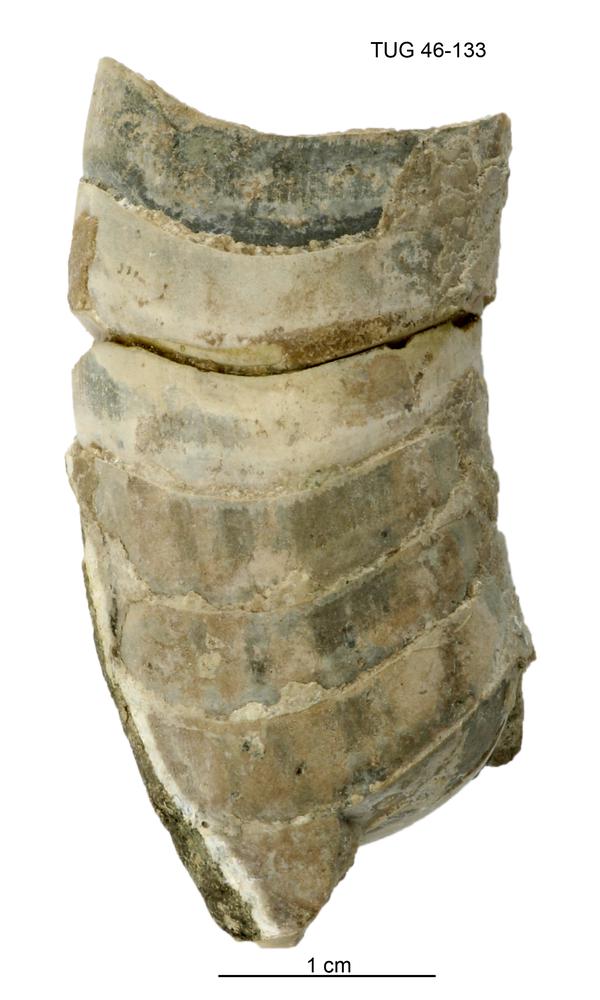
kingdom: Animalia
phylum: Mollusca
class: Cephalopoda
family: Tarphyceratidae
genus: Planctoceras
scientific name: Planctoceras
